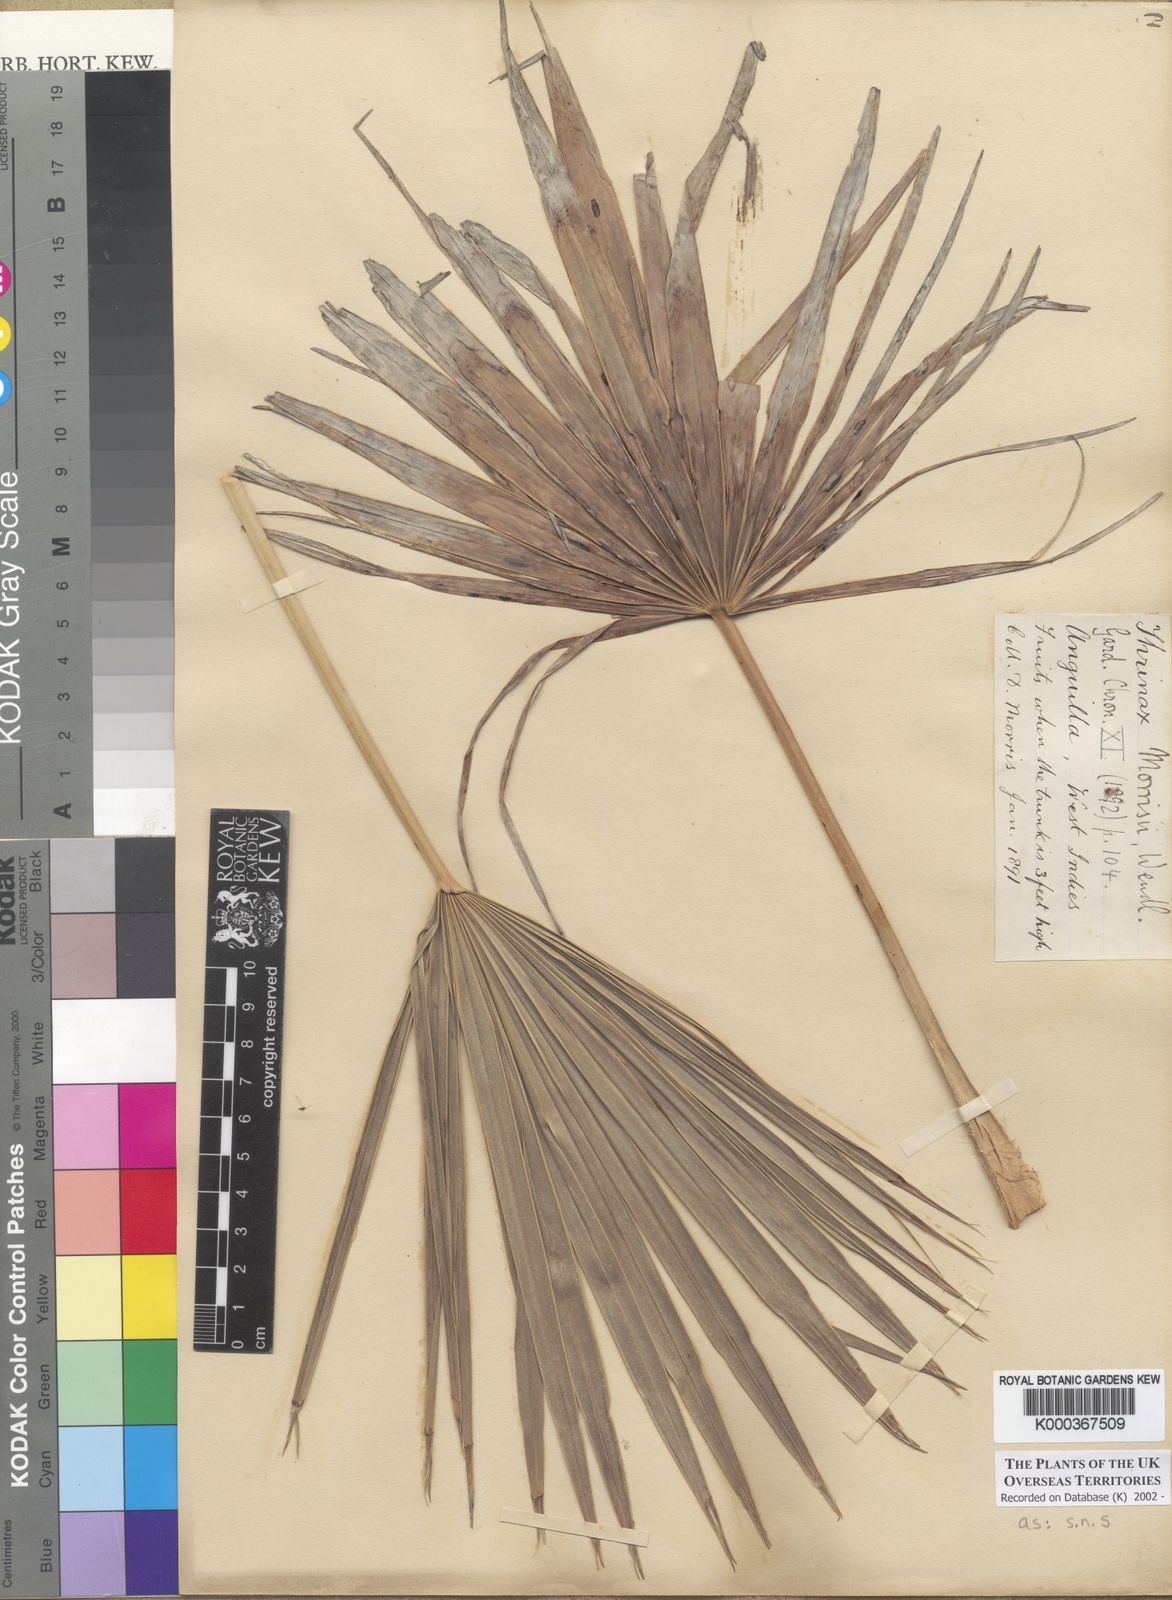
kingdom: Plantae
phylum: Tracheophyta
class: Liliopsida
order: Arecales
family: Arecaceae
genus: Leucothrinax
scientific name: Leucothrinax morrisii
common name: Key palm
